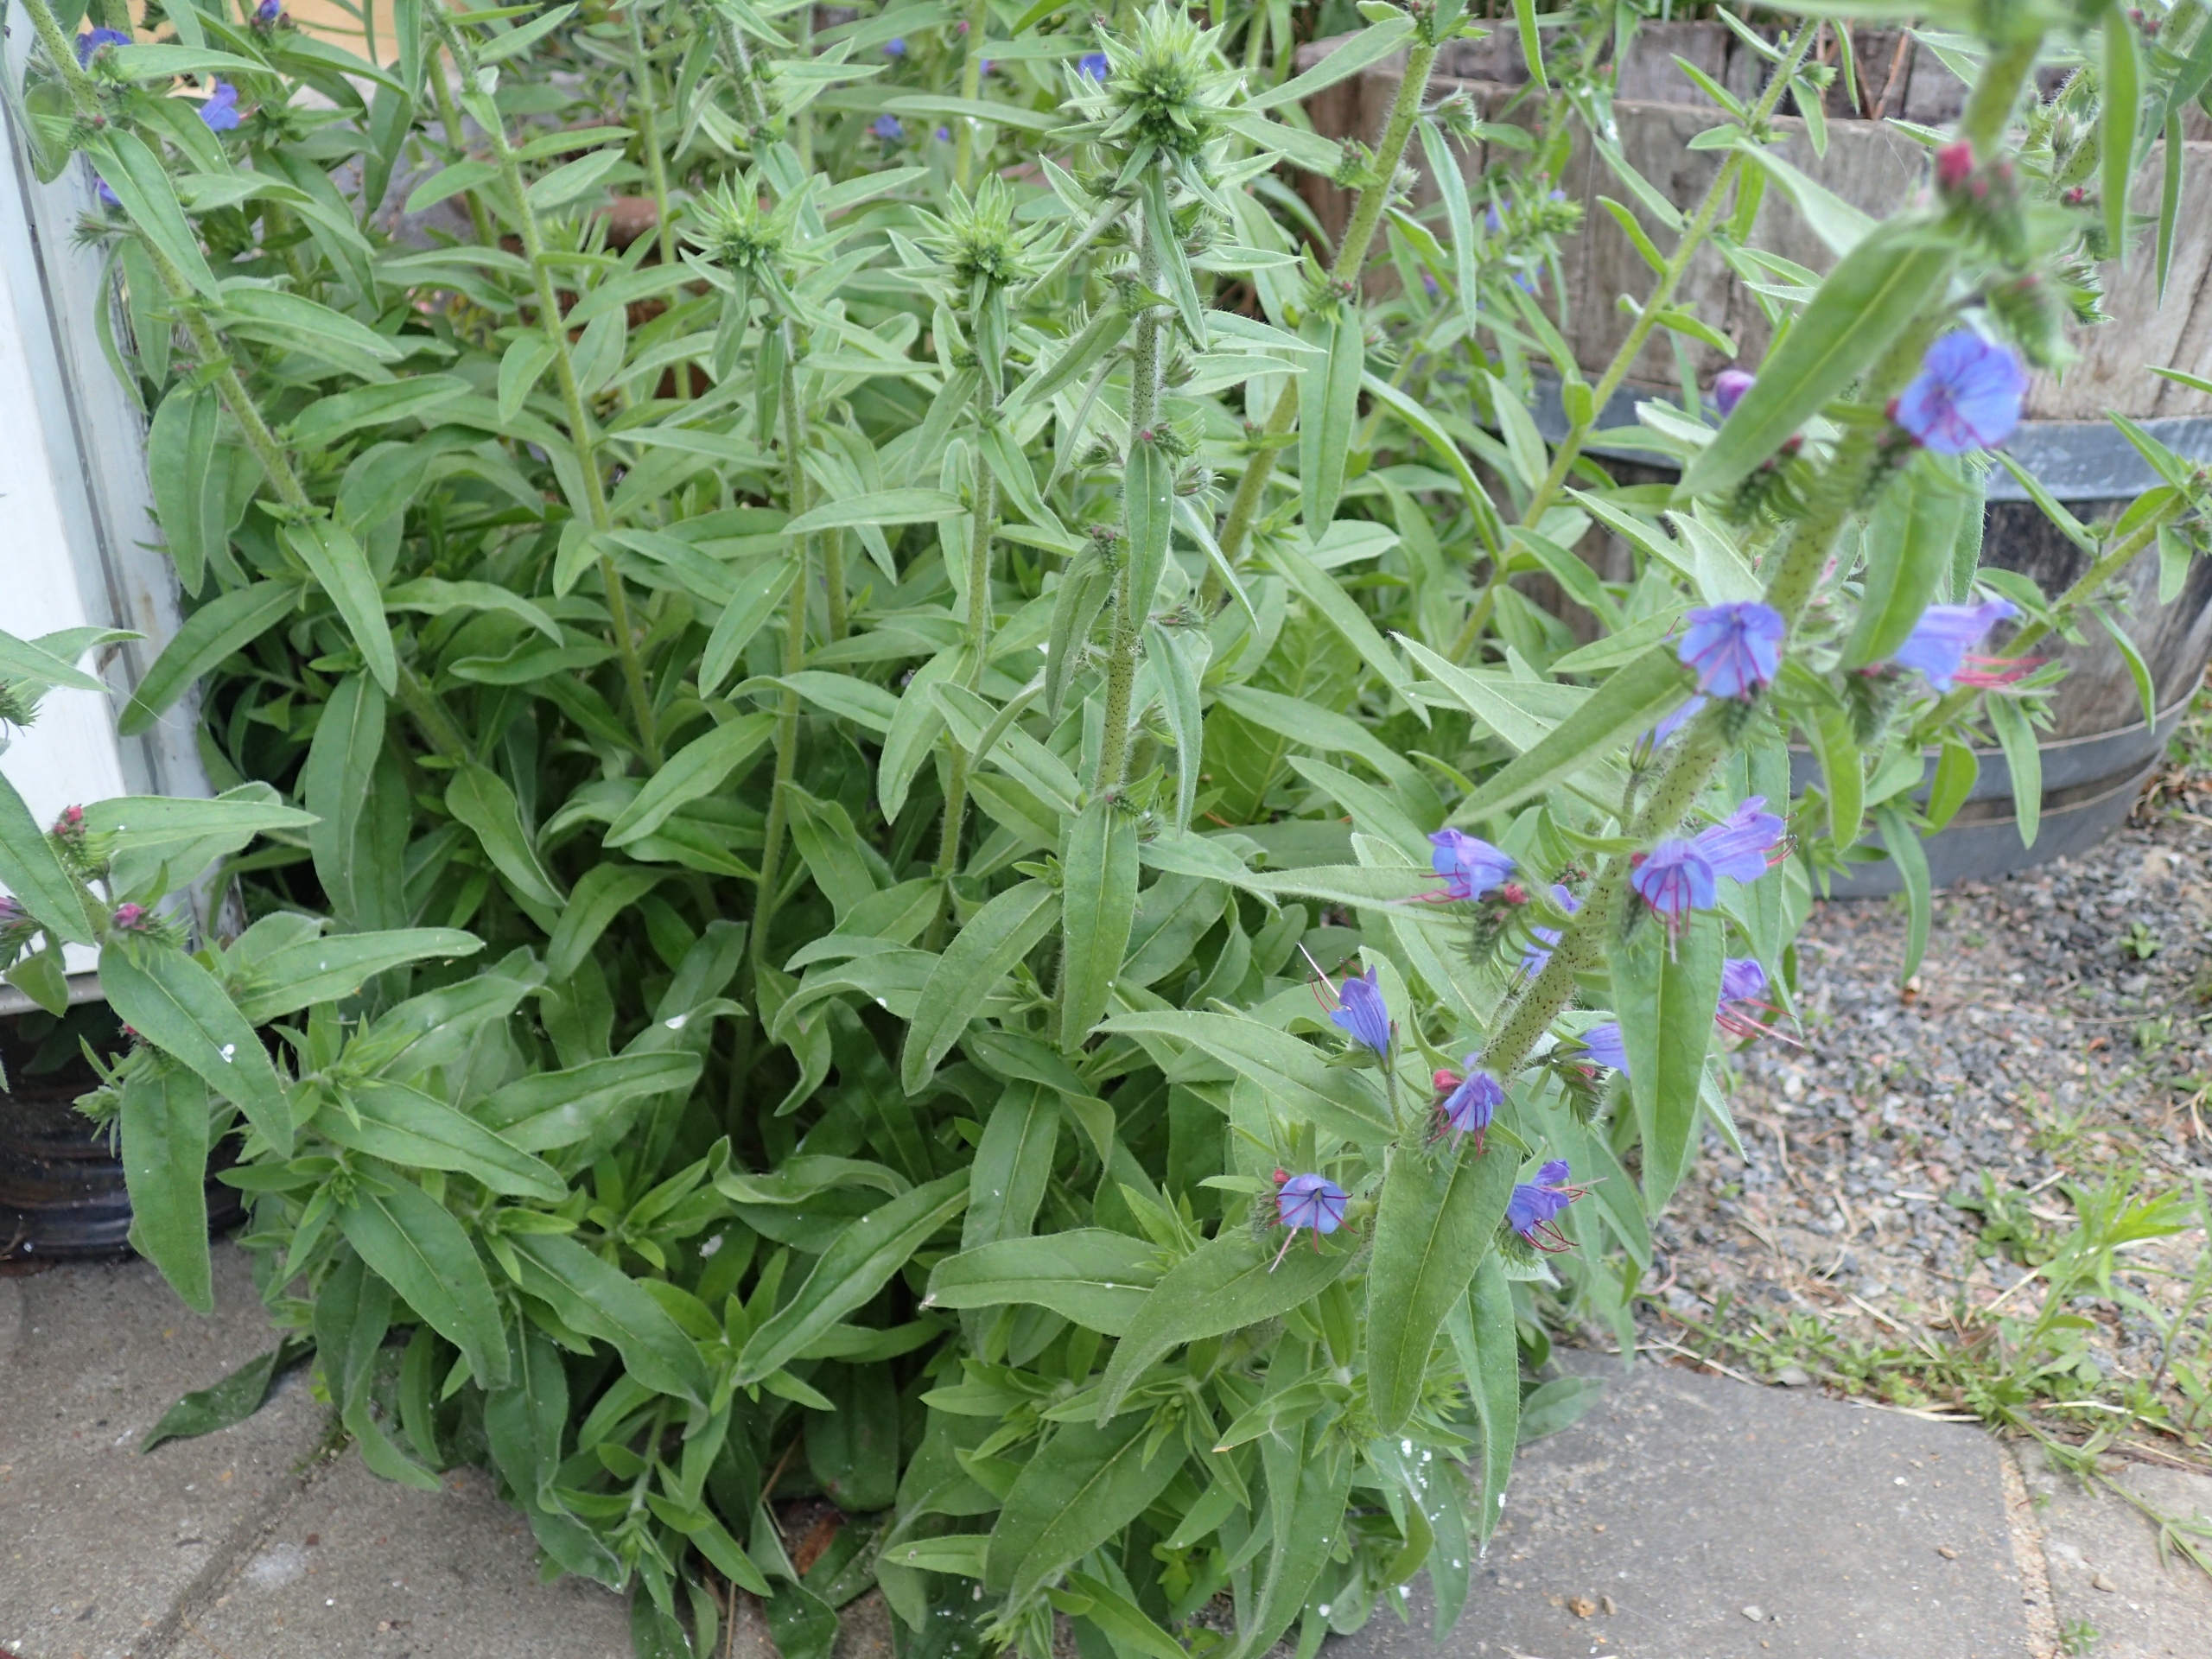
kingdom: Plantae
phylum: Tracheophyta
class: Magnoliopsida
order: Boraginales
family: Boraginaceae
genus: Echium
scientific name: Echium vulgare
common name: Slangehoved
